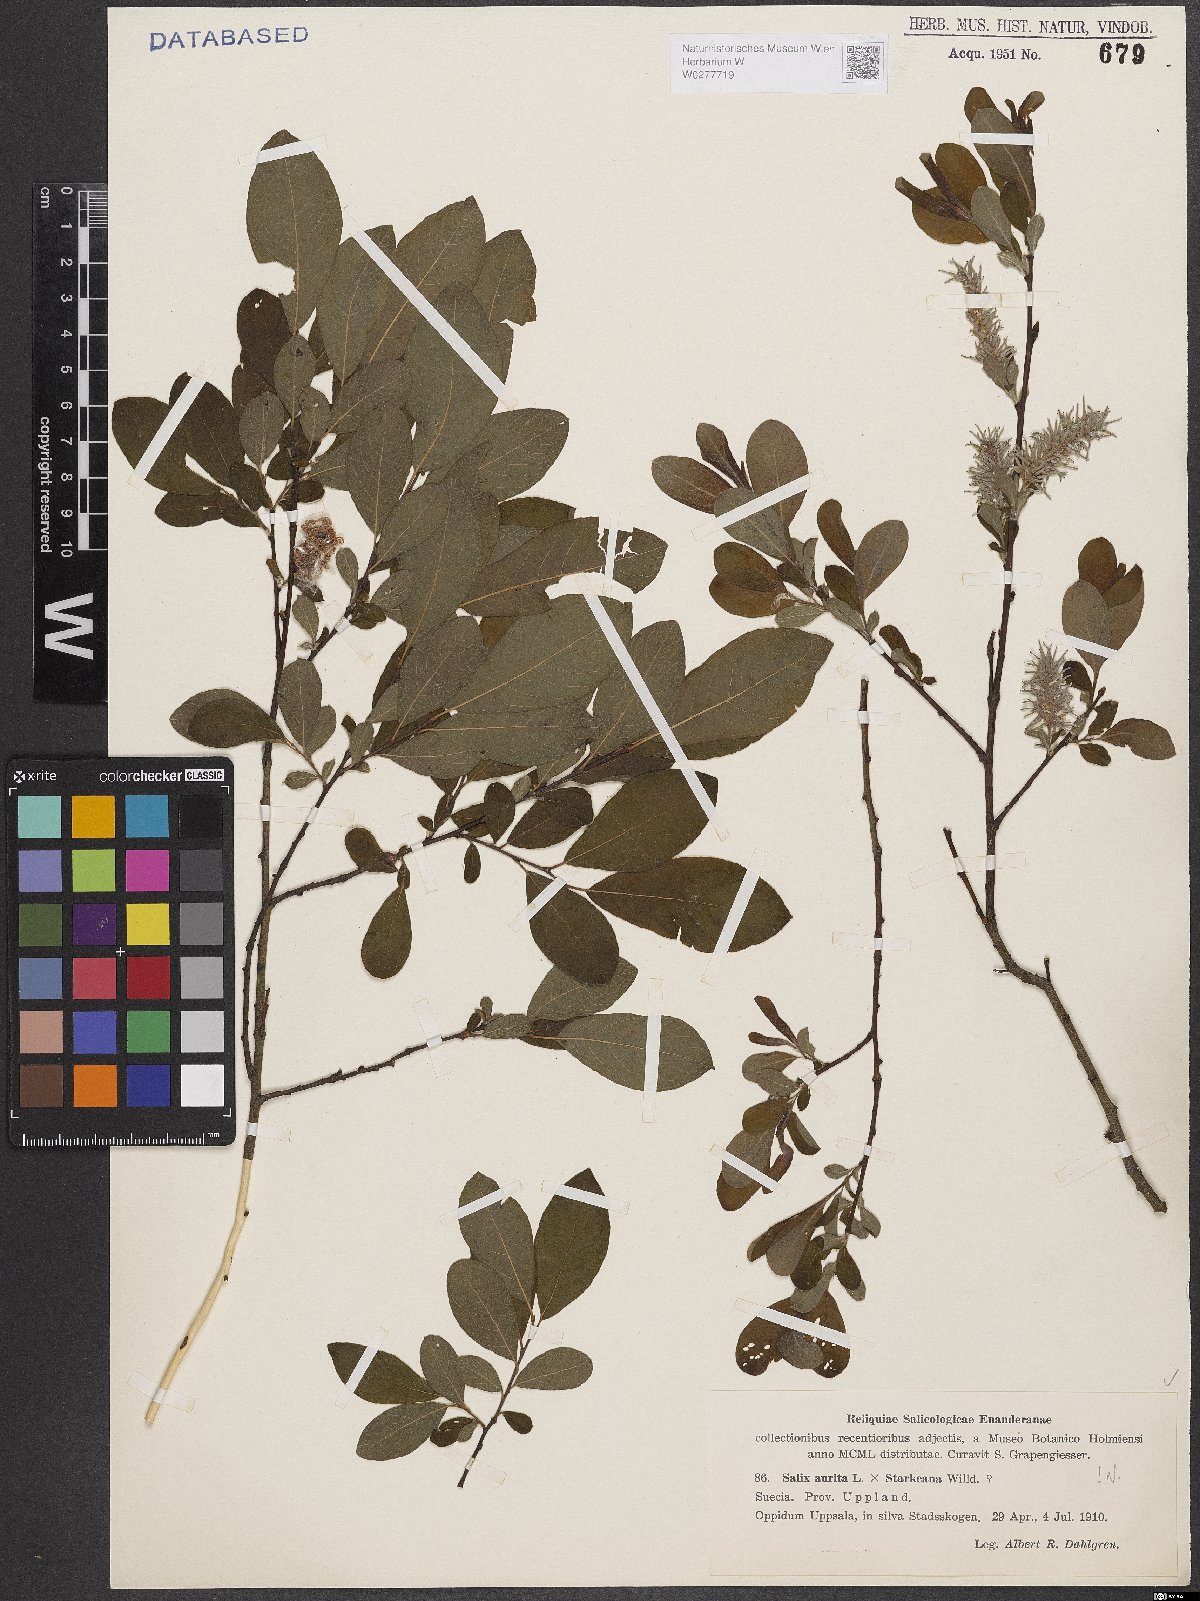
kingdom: Plantae
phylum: Tracheophyta
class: Magnoliopsida
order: Malpighiales
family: Salicaceae
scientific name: Salicaceae
